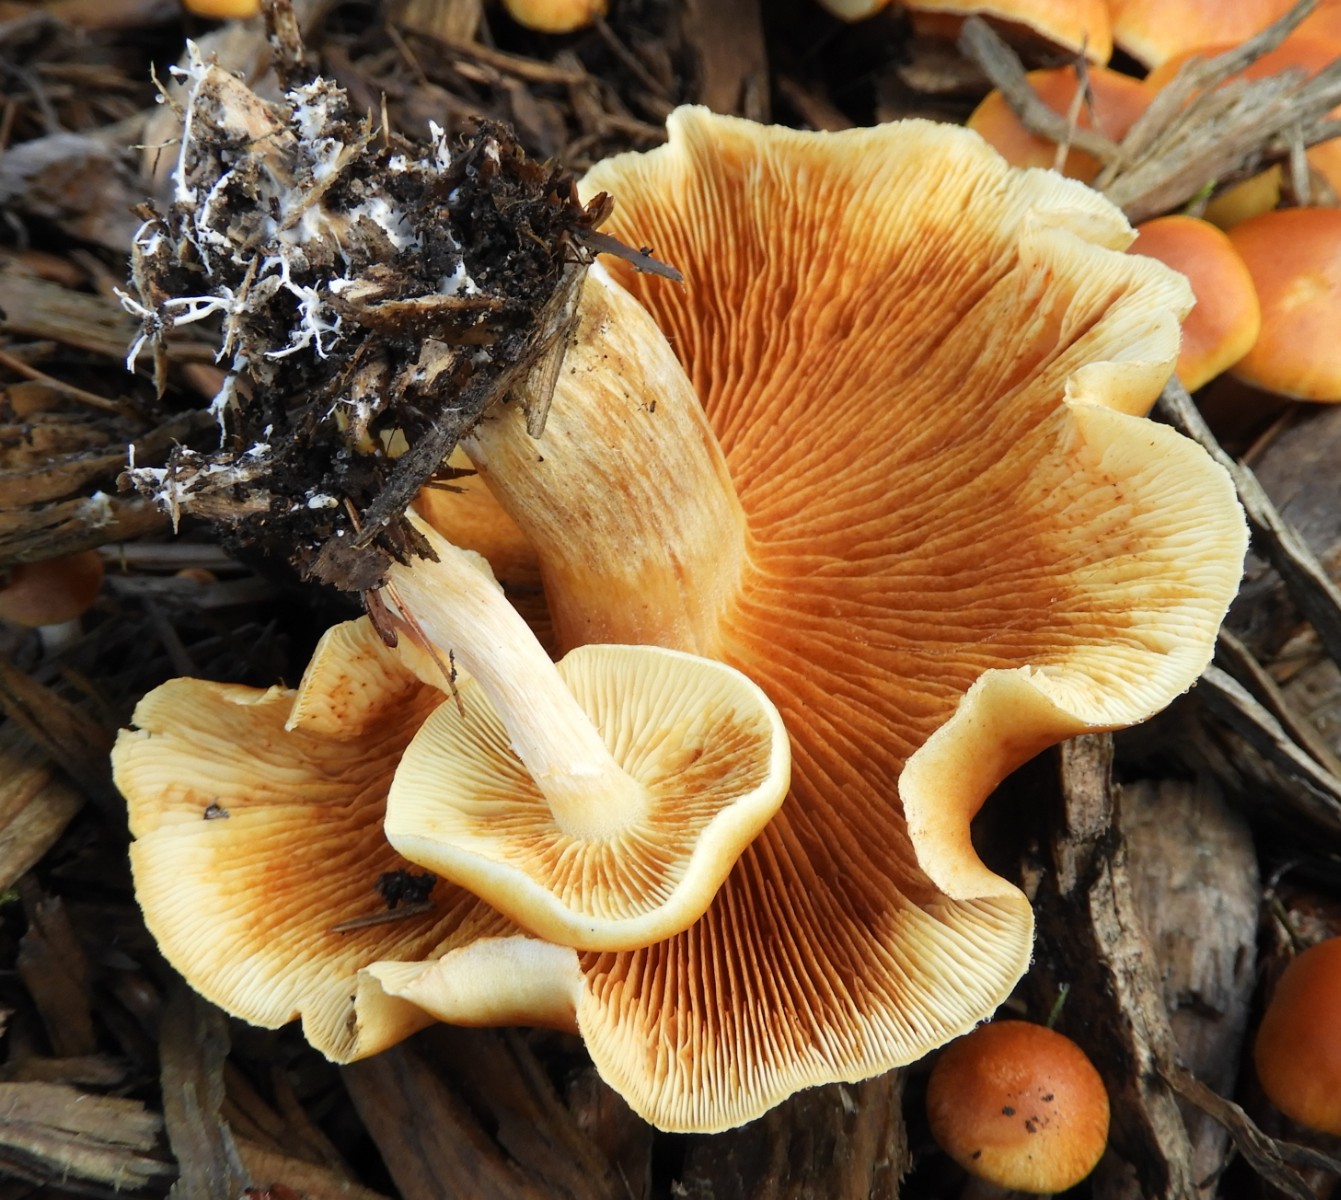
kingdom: Fungi
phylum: Basidiomycota
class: Agaricomycetes
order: Agaricales
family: Hymenogastraceae
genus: Gymnopilus
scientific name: Gymnopilus penetrans
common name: plettet flammehat
